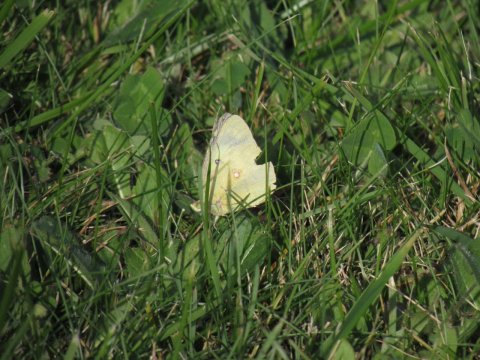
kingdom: Animalia
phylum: Arthropoda
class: Insecta
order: Lepidoptera
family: Pieridae
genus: Colias
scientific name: Colias philodice
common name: Clouded Sulphur
